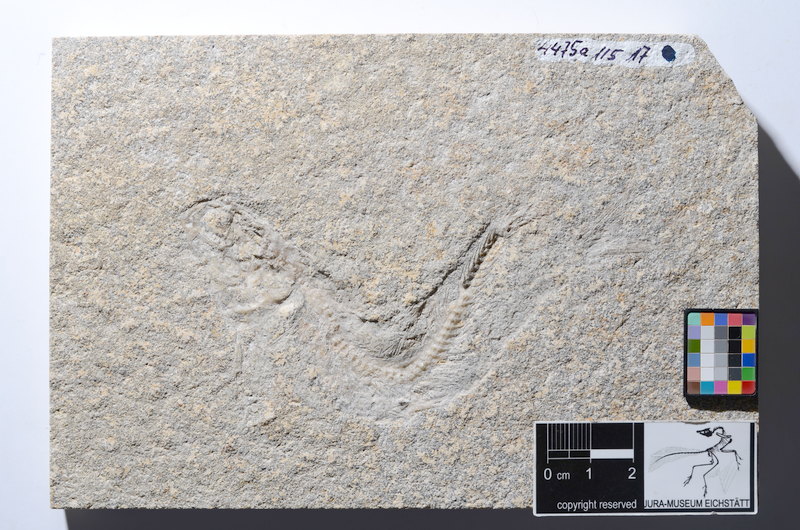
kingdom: Animalia
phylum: Chordata
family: Ascalaboidae
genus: Tharsis
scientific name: Tharsis dubius
